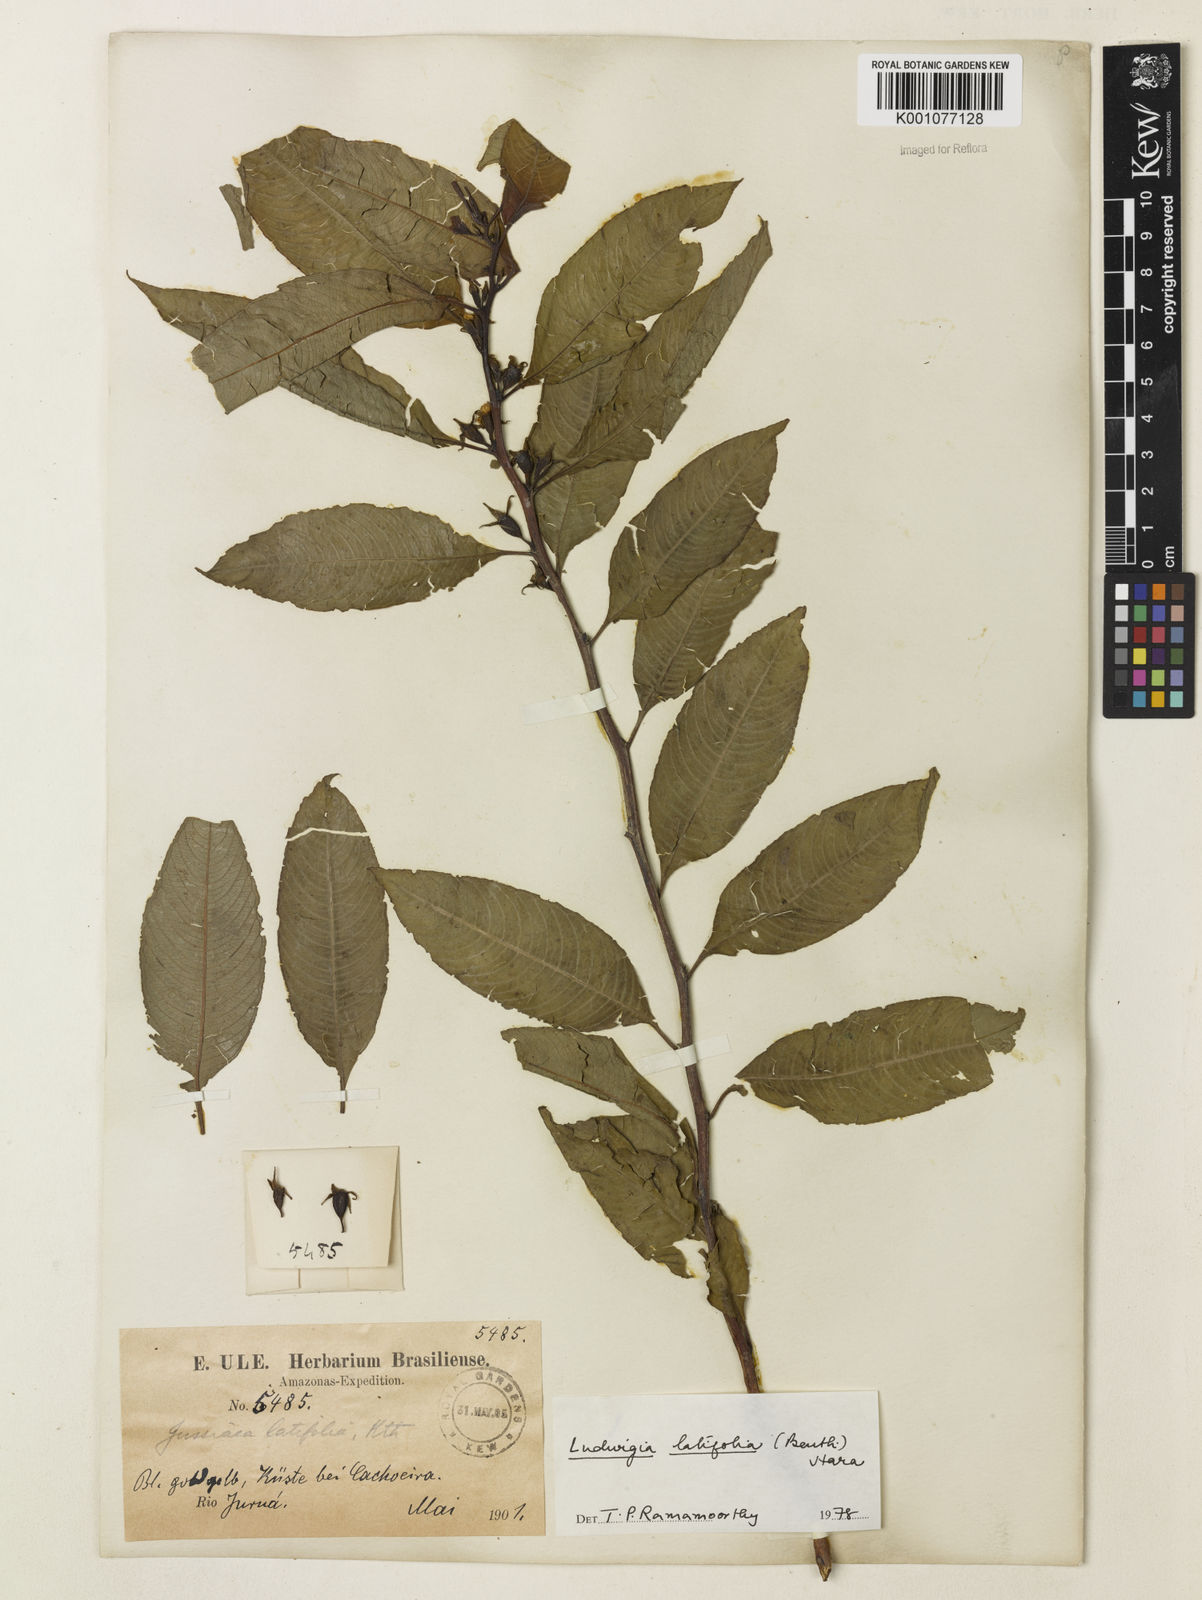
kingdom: Plantae
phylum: Tracheophyta
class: Magnoliopsida
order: Myrtales
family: Onagraceae
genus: Ludwigia
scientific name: Ludwigia latifolia
